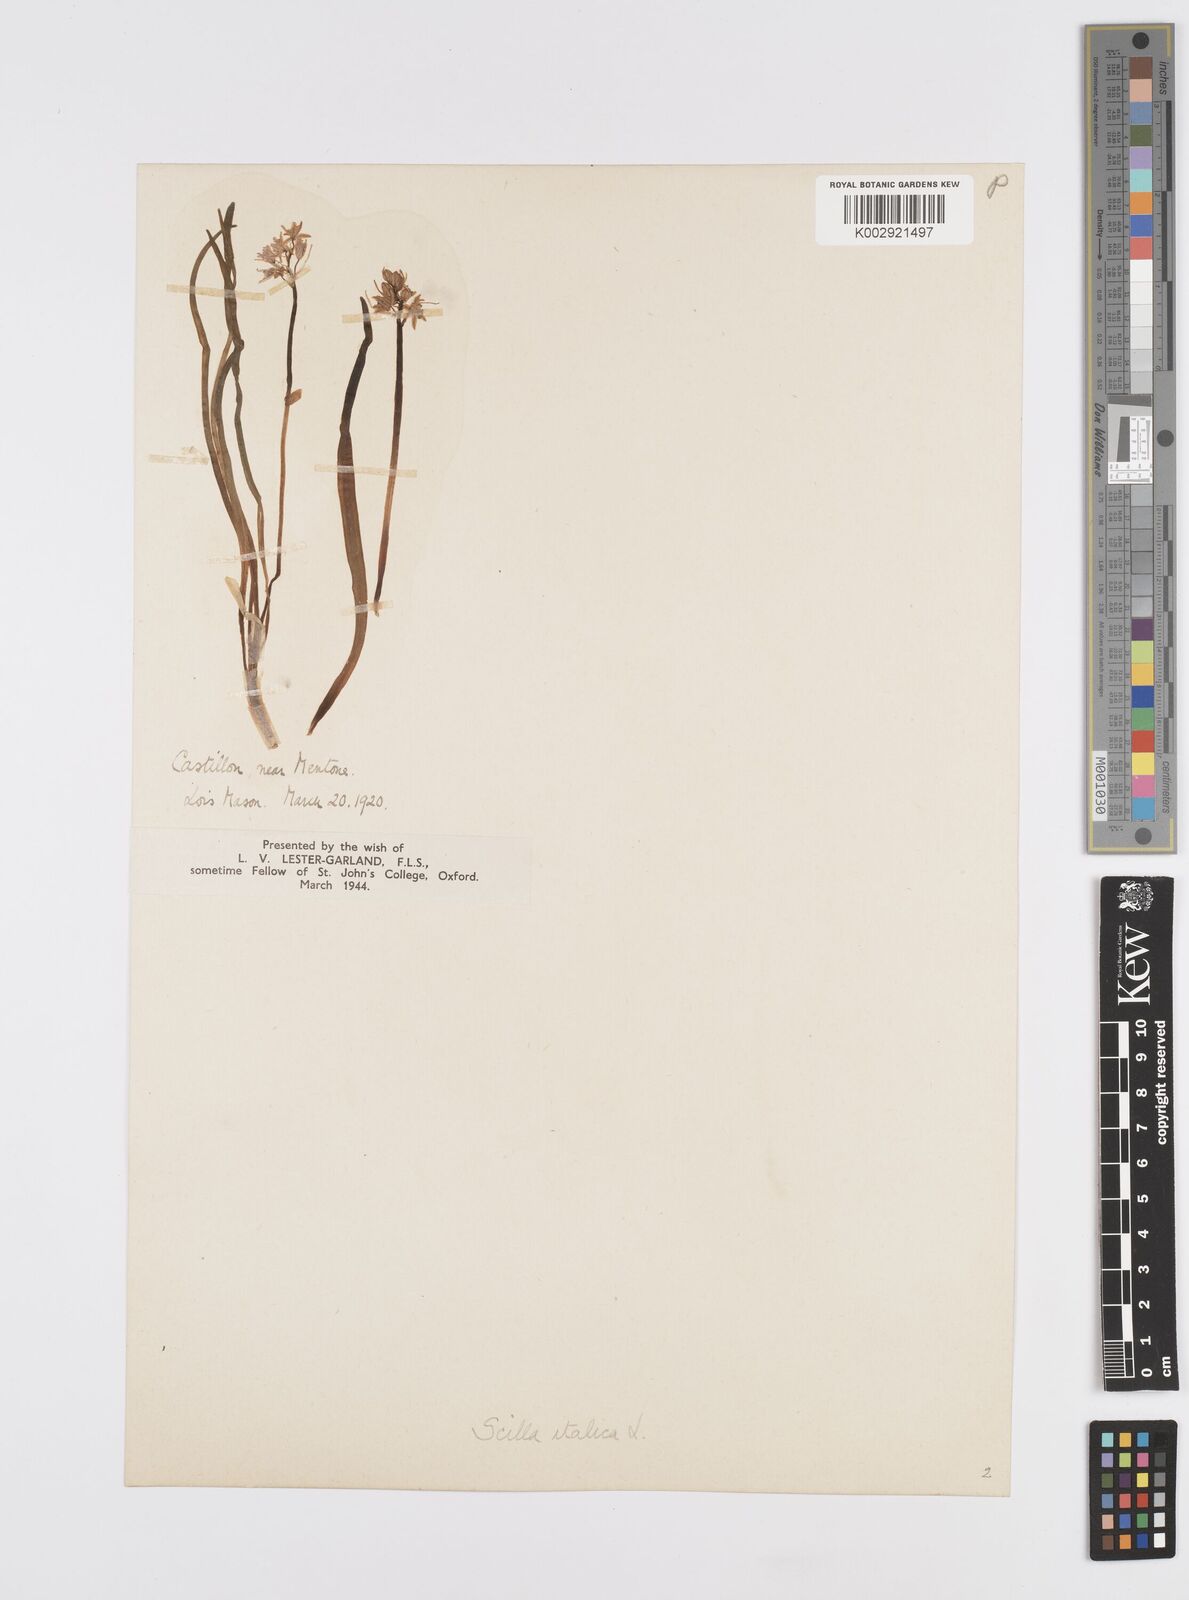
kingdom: Plantae
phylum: Tracheophyta
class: Liliopsida
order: Asparagales
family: Asparagaceae
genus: Hyacinthoides
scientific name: Hyacinthoides italica
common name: Italian bluebell
